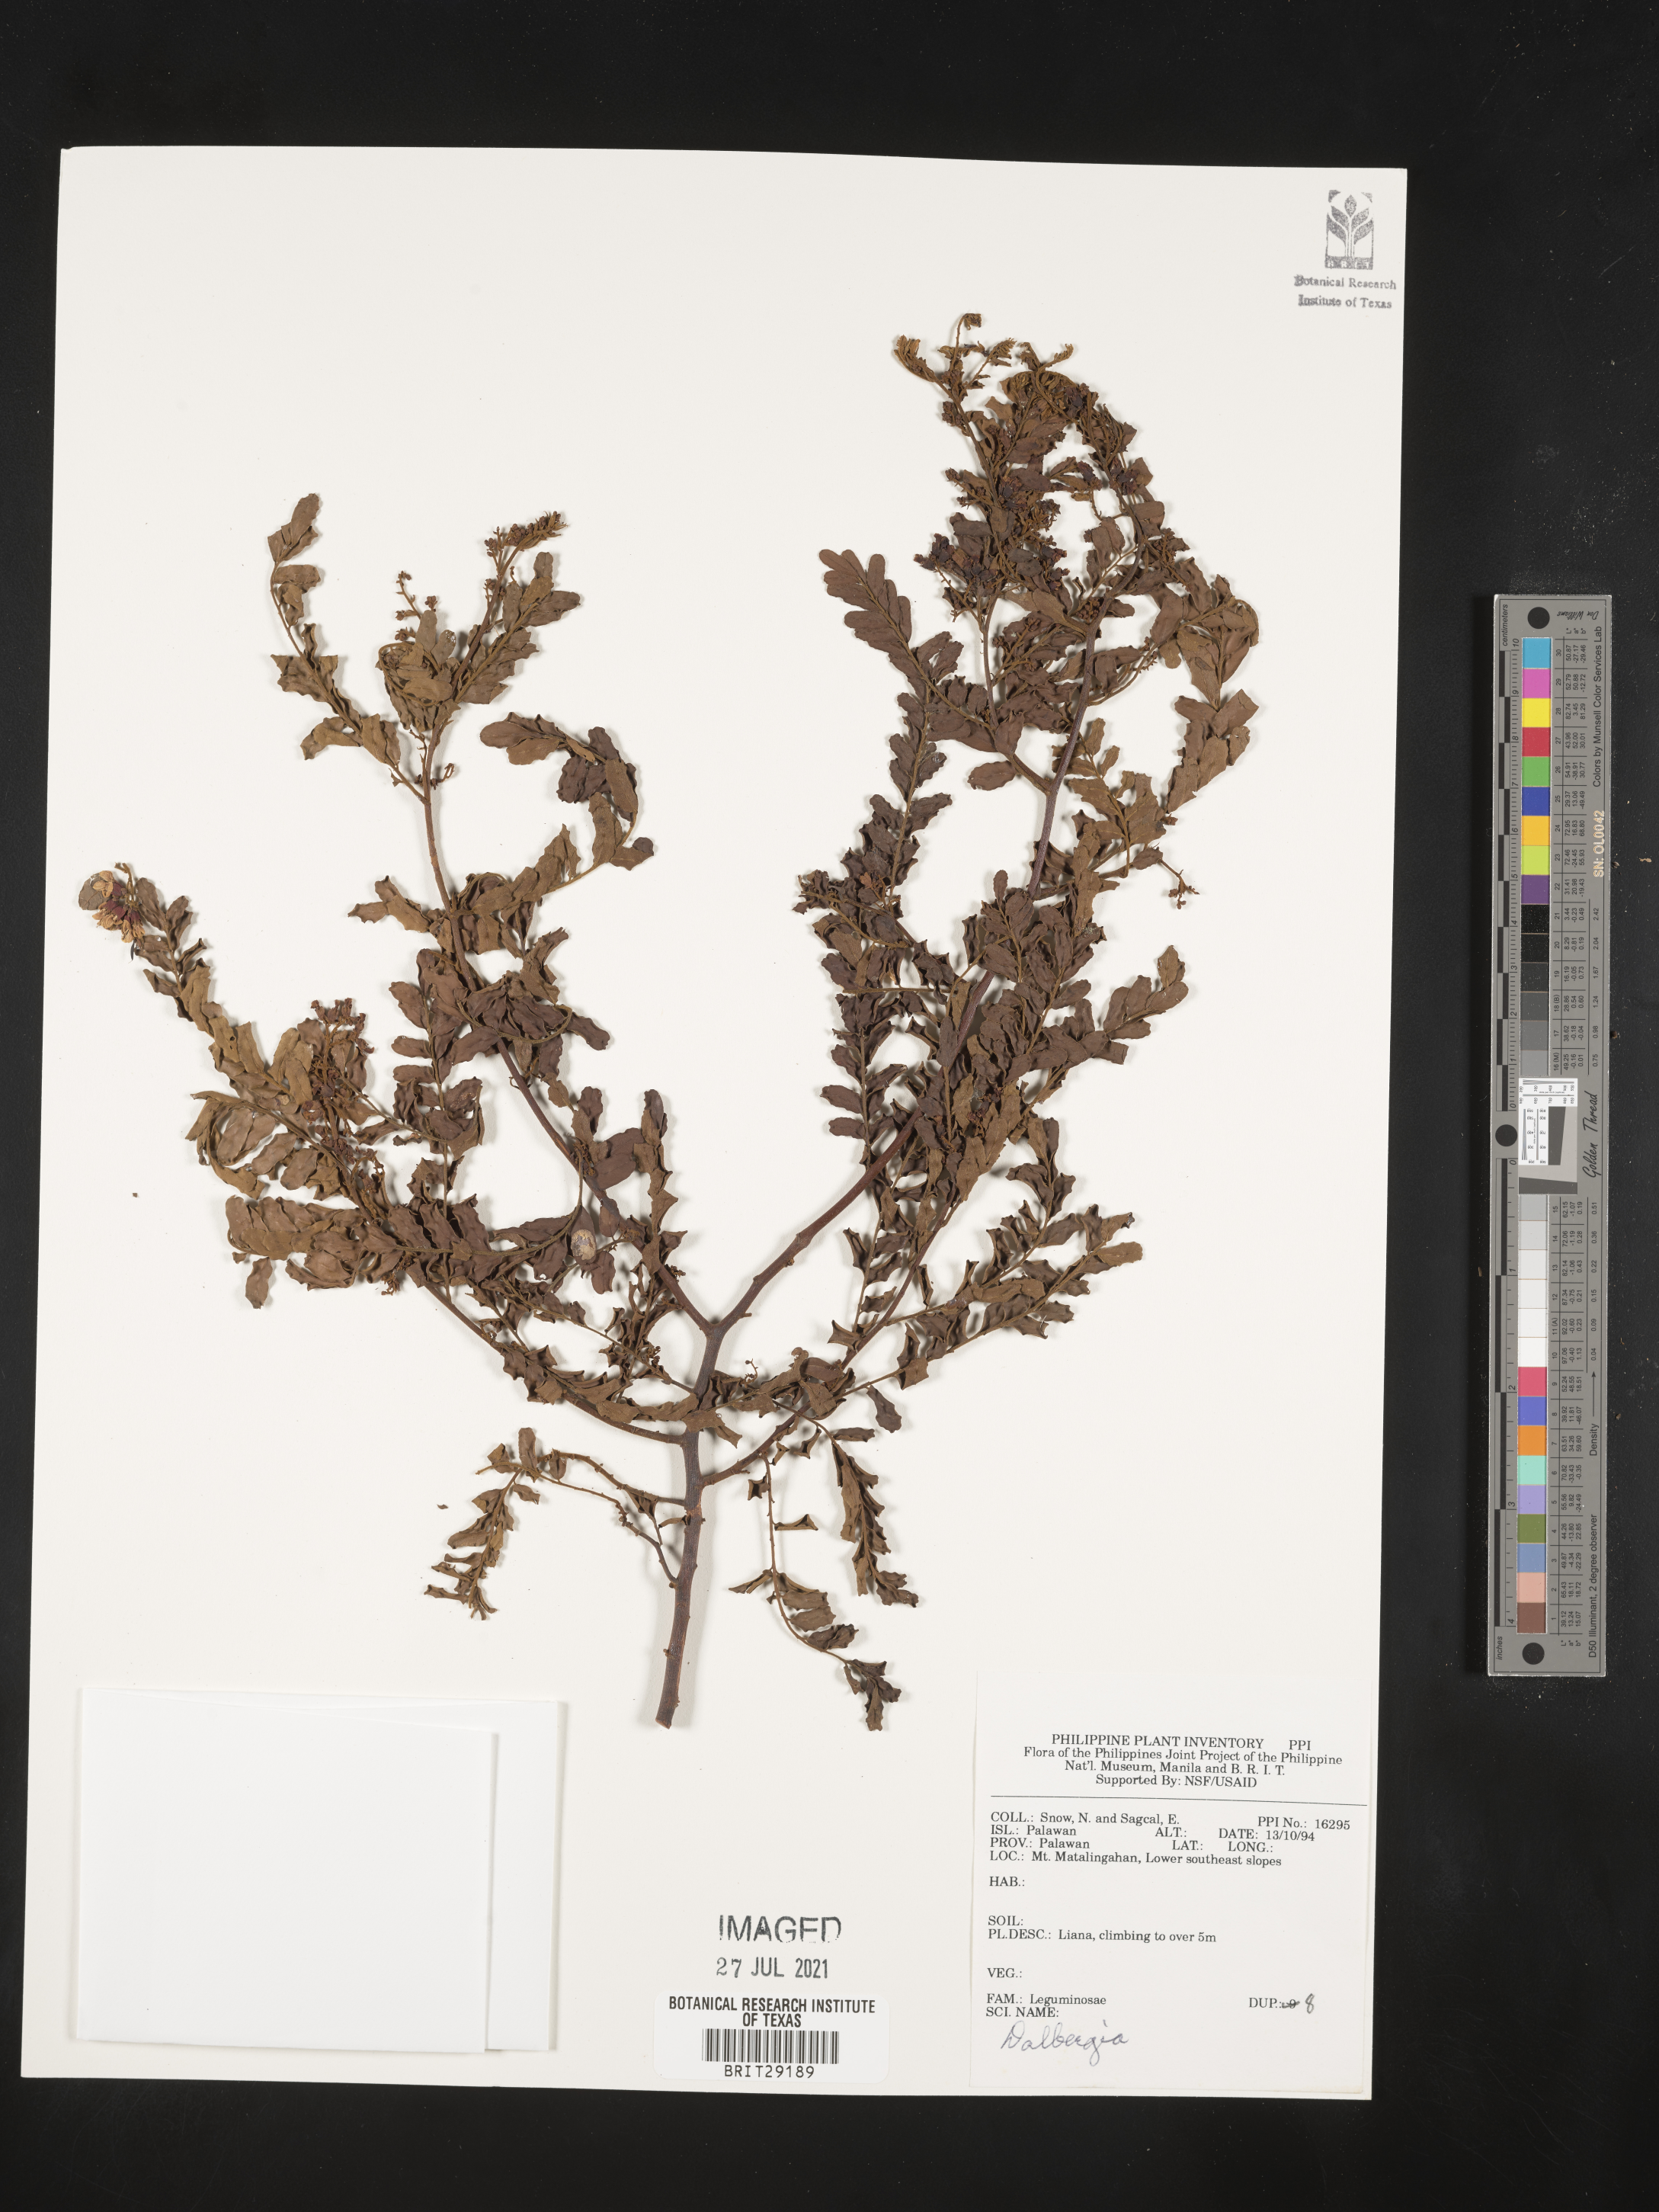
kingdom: Plantae
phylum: Tracheophyta
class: Magnoliopsida
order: Fabales
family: Fabaceae
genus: Dalbergia
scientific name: Dalbergia
